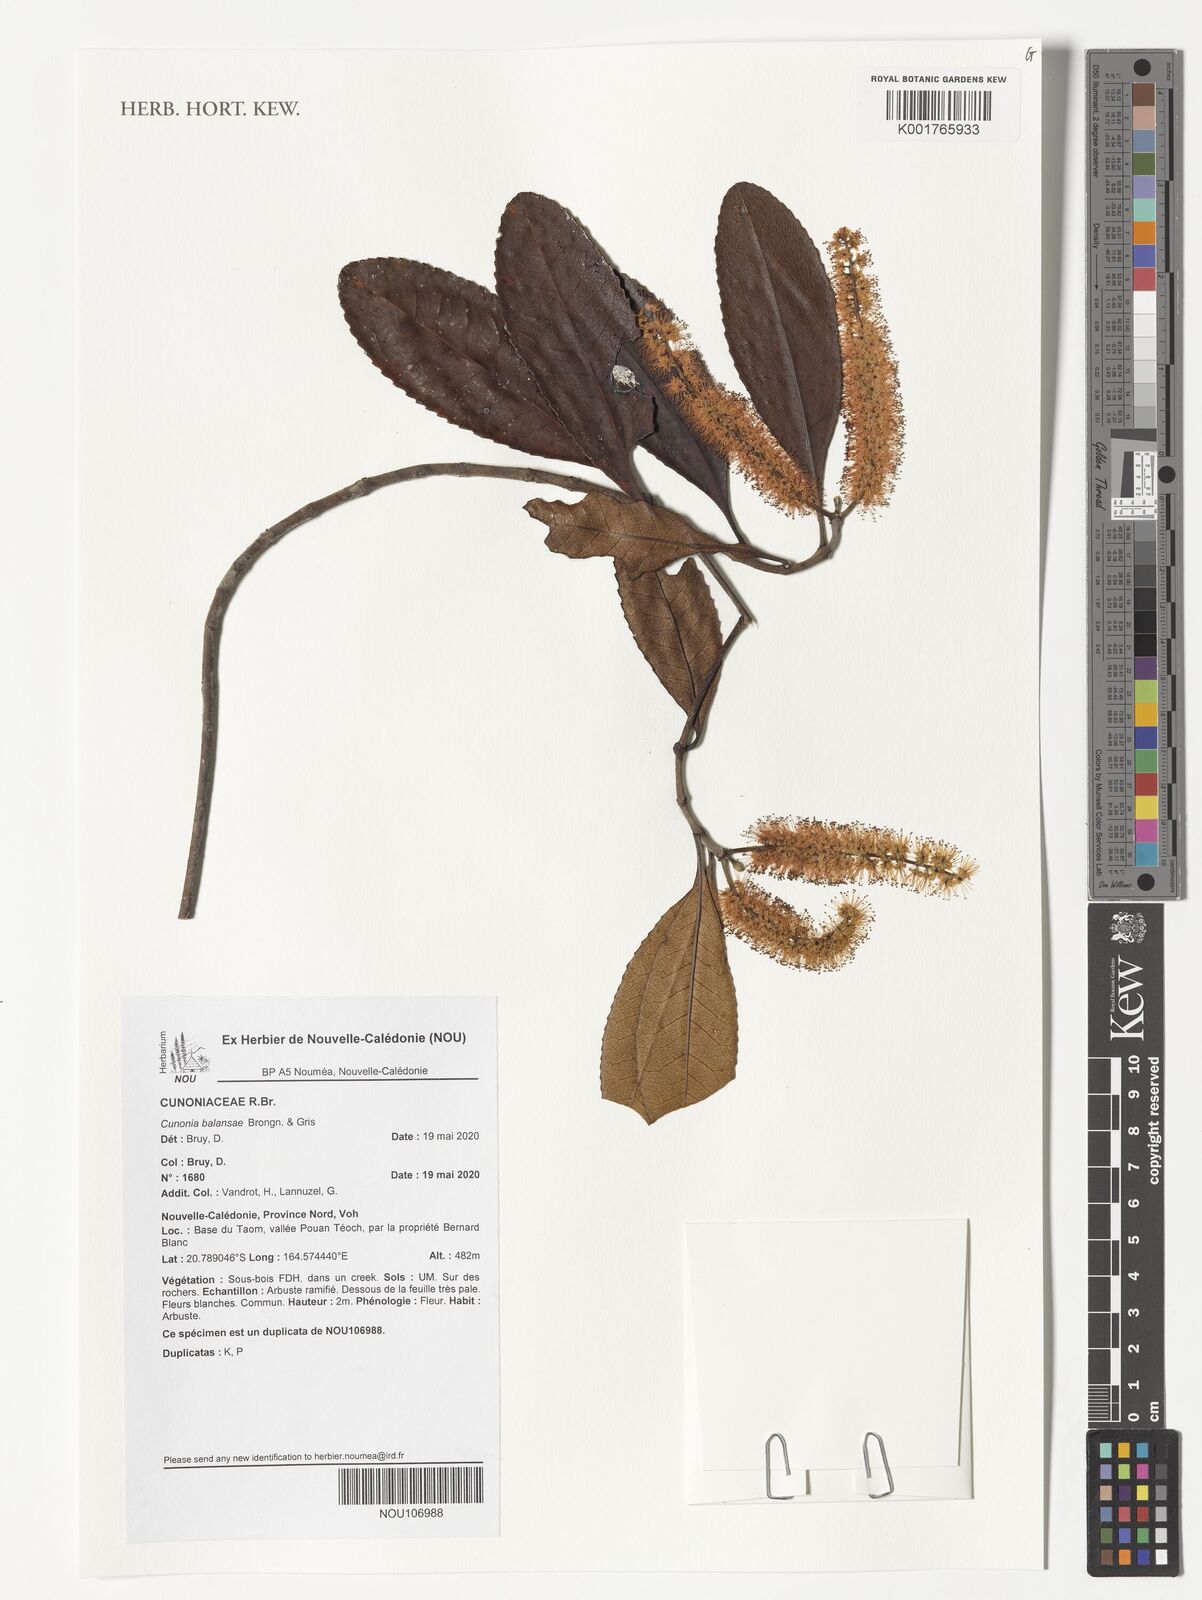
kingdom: Plantae
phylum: Tracheophyta
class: Magnoliopsida
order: Oxalidales
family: Cunoniaceae
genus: Cunonia
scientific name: Cunonia balansae
